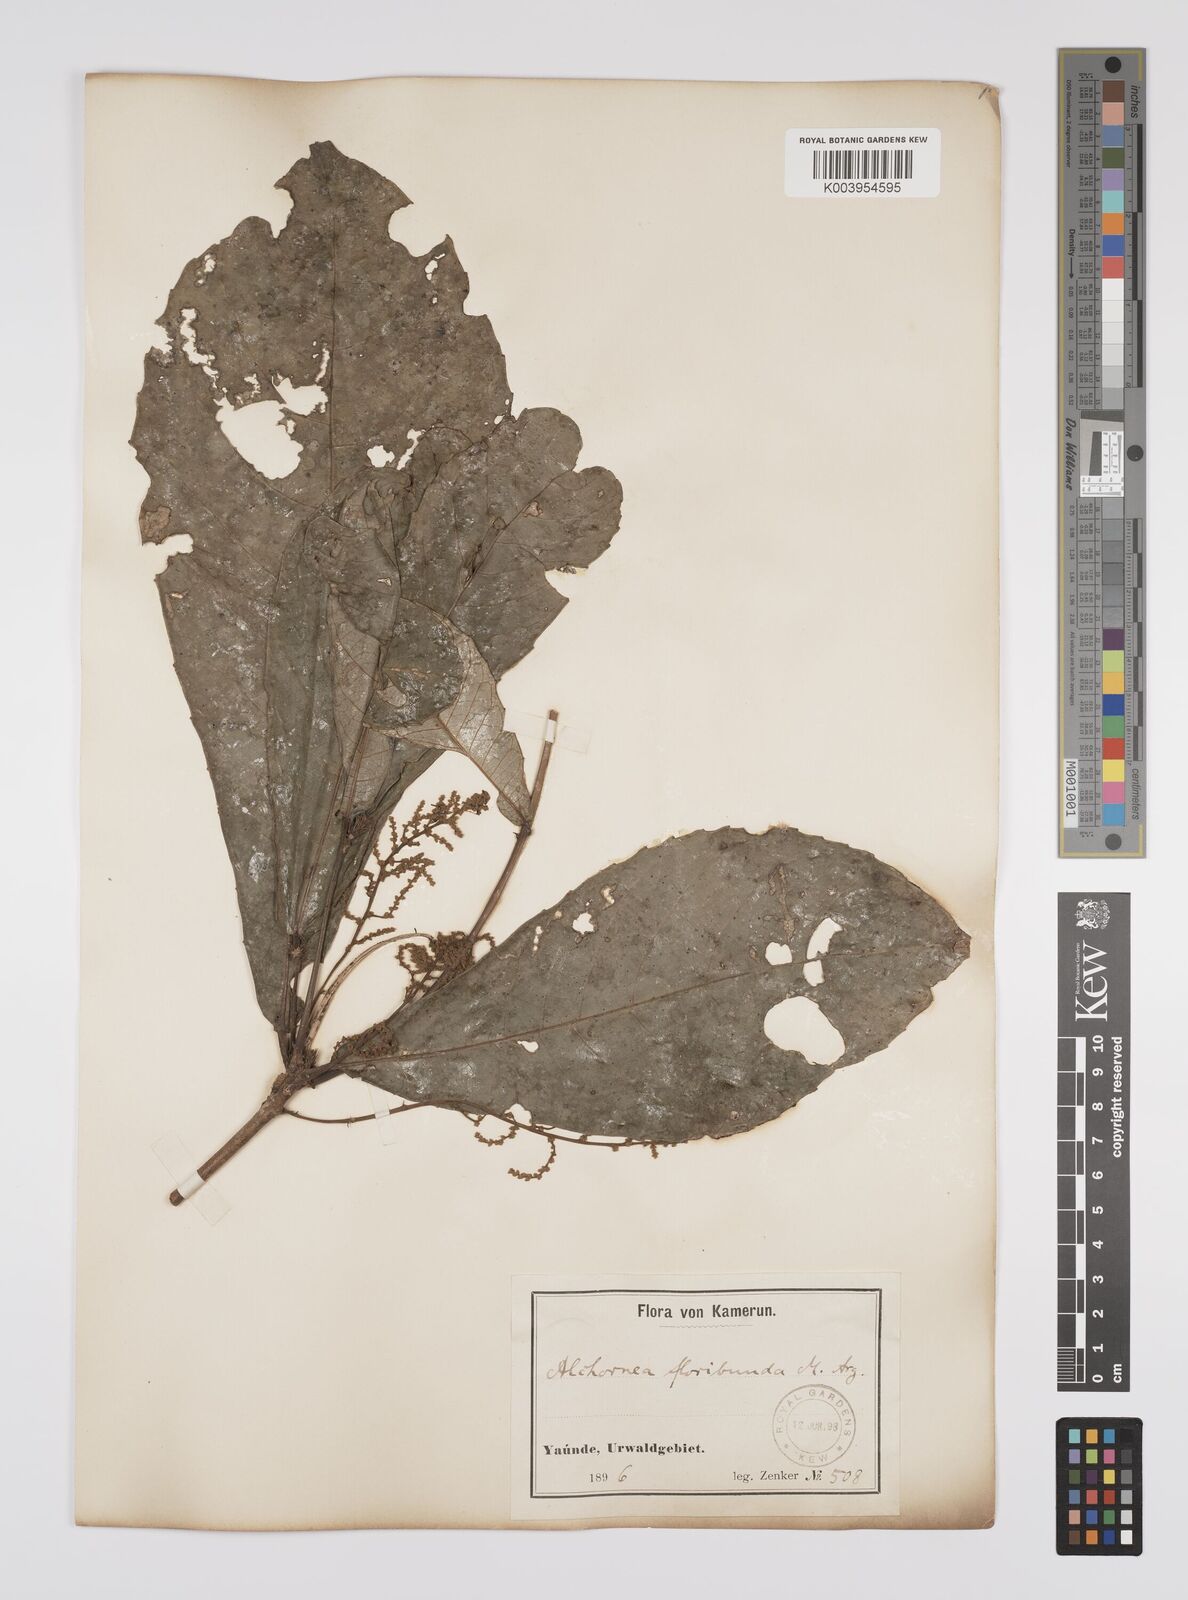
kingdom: Plantae
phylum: Tracheophyta
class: Magnoliopsida
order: Malpighiales
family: Euphorbiaceae
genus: Alchornea
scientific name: Alchornea floribunda
